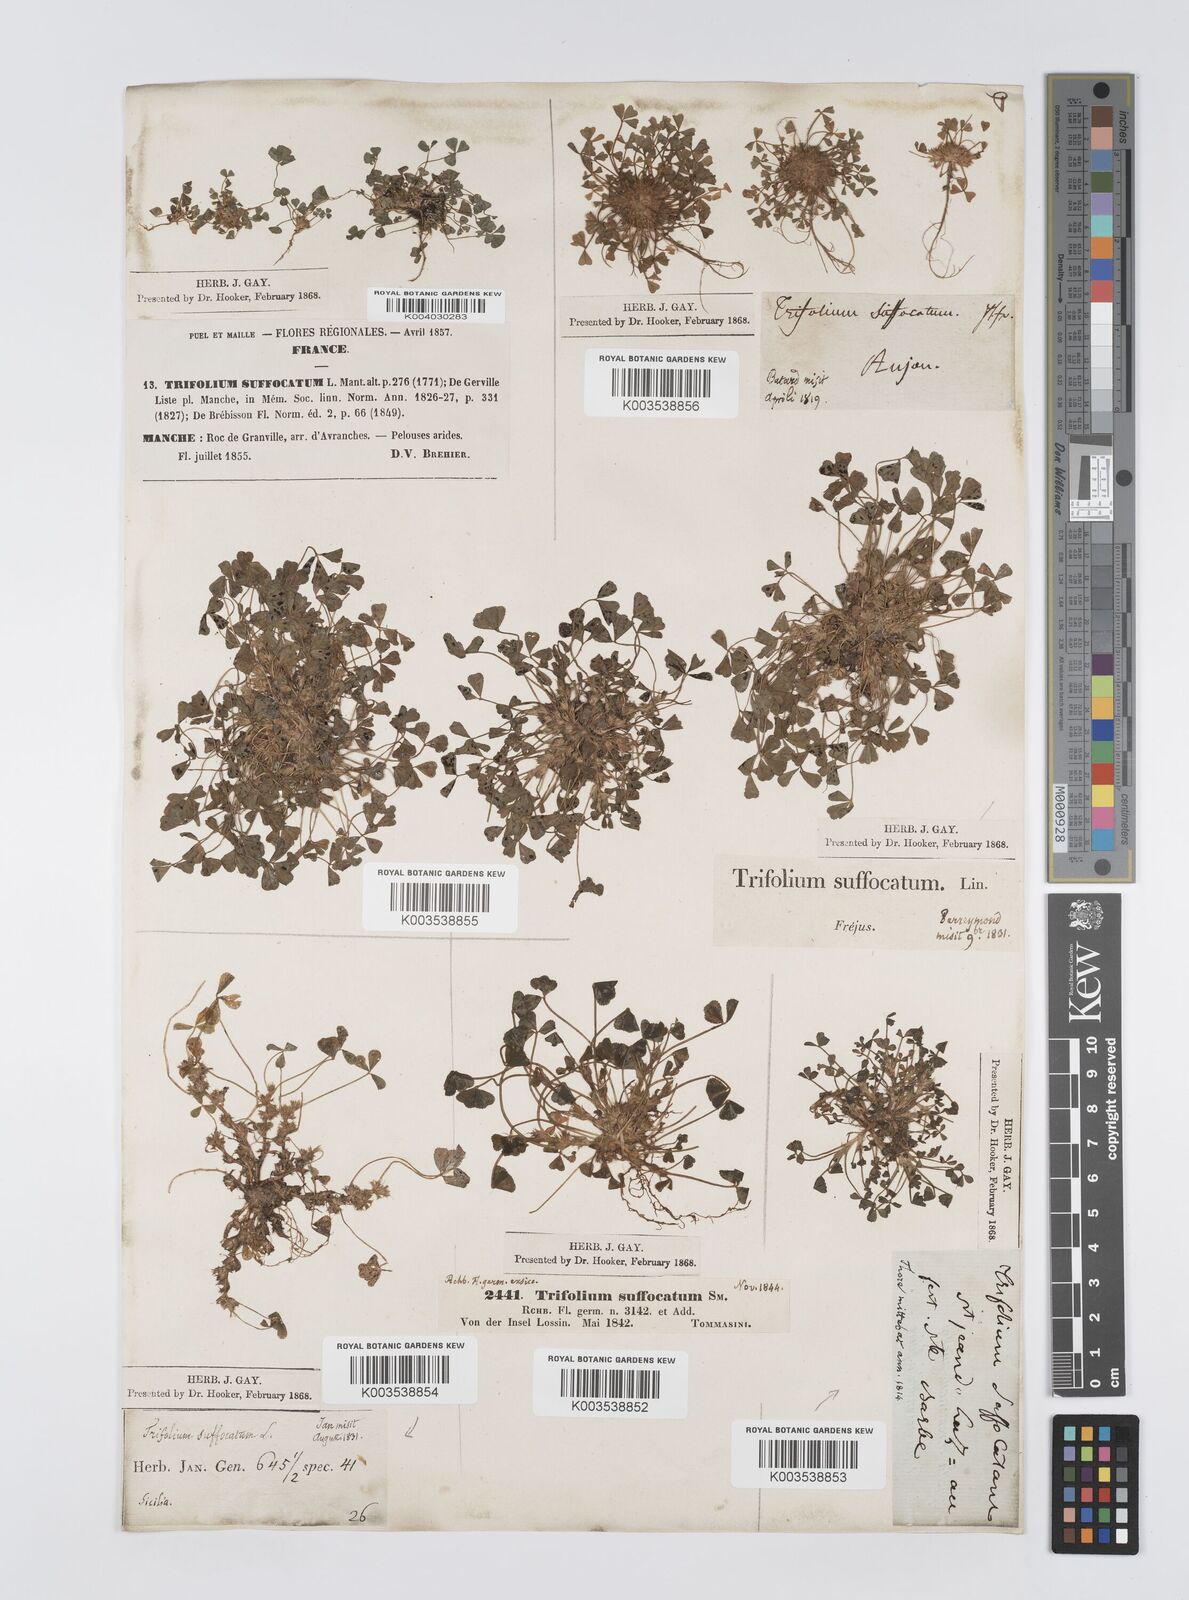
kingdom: Plantae
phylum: Tracheophyta
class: Magnoliopsida
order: Fabales
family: Fabaceae
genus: Trifolium
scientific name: Trifolium suffocatum
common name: Suffocated clover
